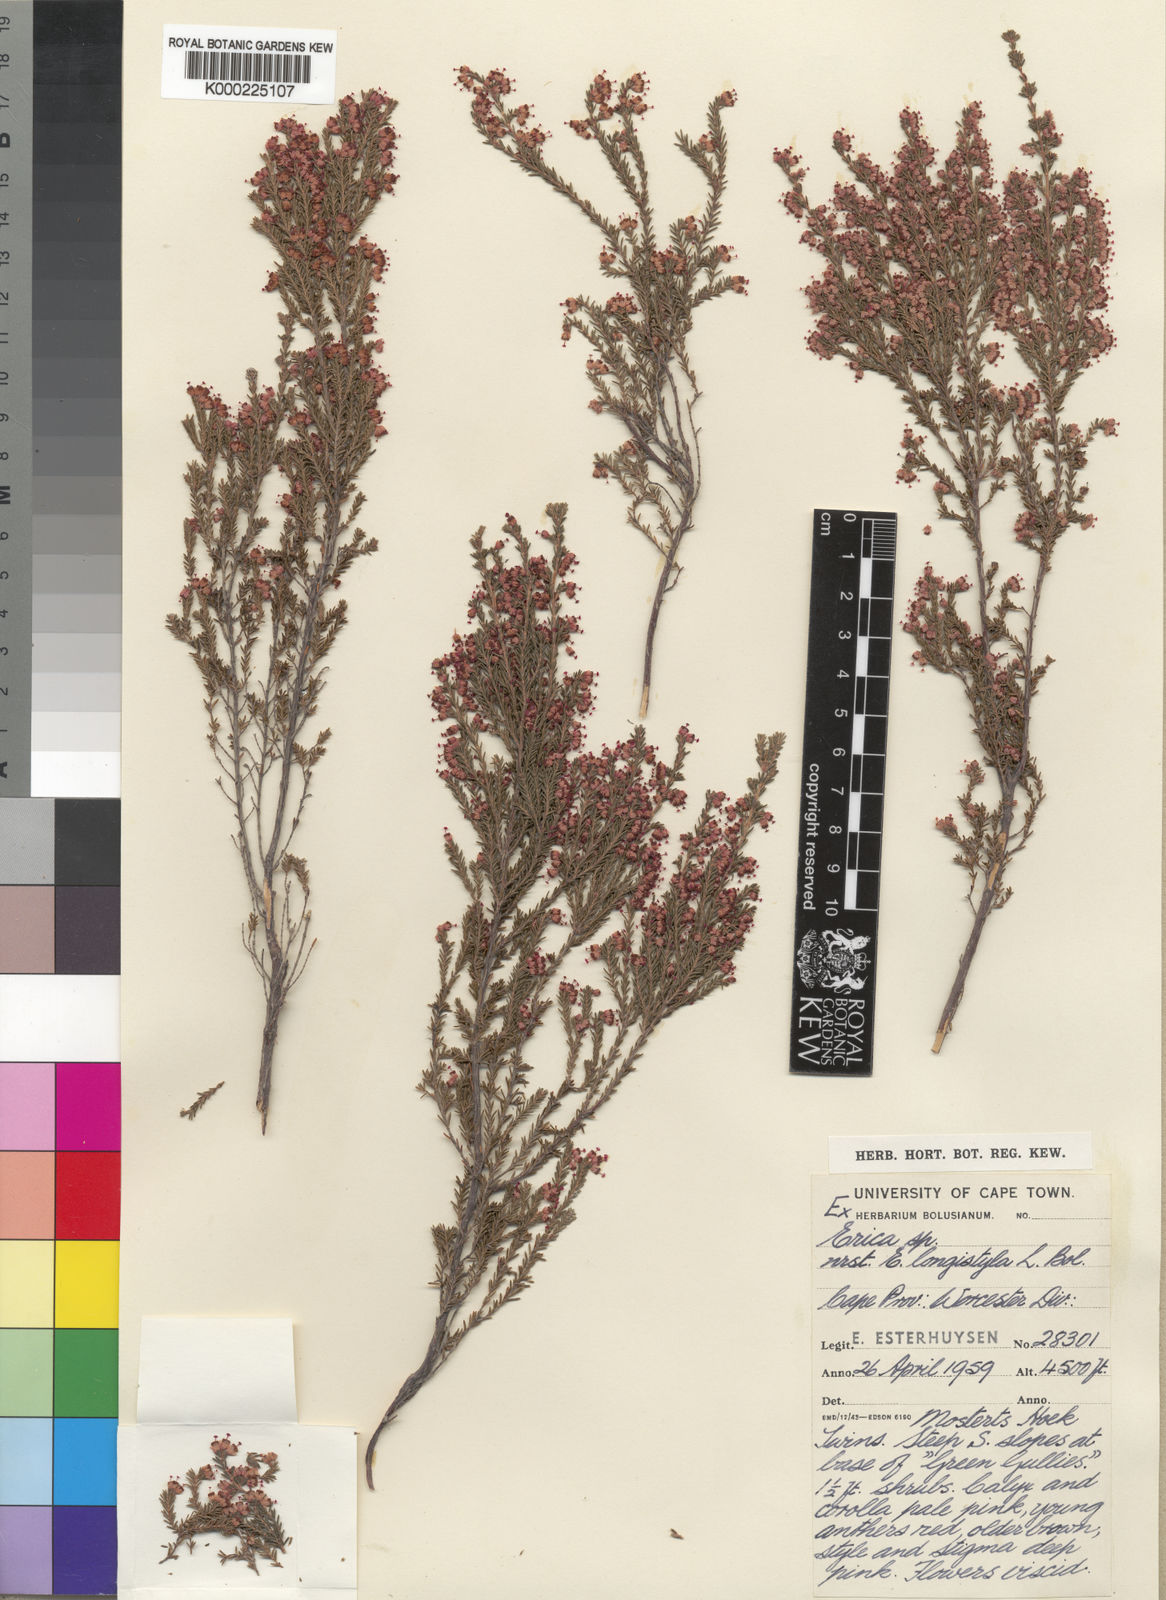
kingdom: Plantae
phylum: Tracheophyta
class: Magnoliopsida
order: Ericales
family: Ericaceae
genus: Erica
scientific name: Erica longistyla
